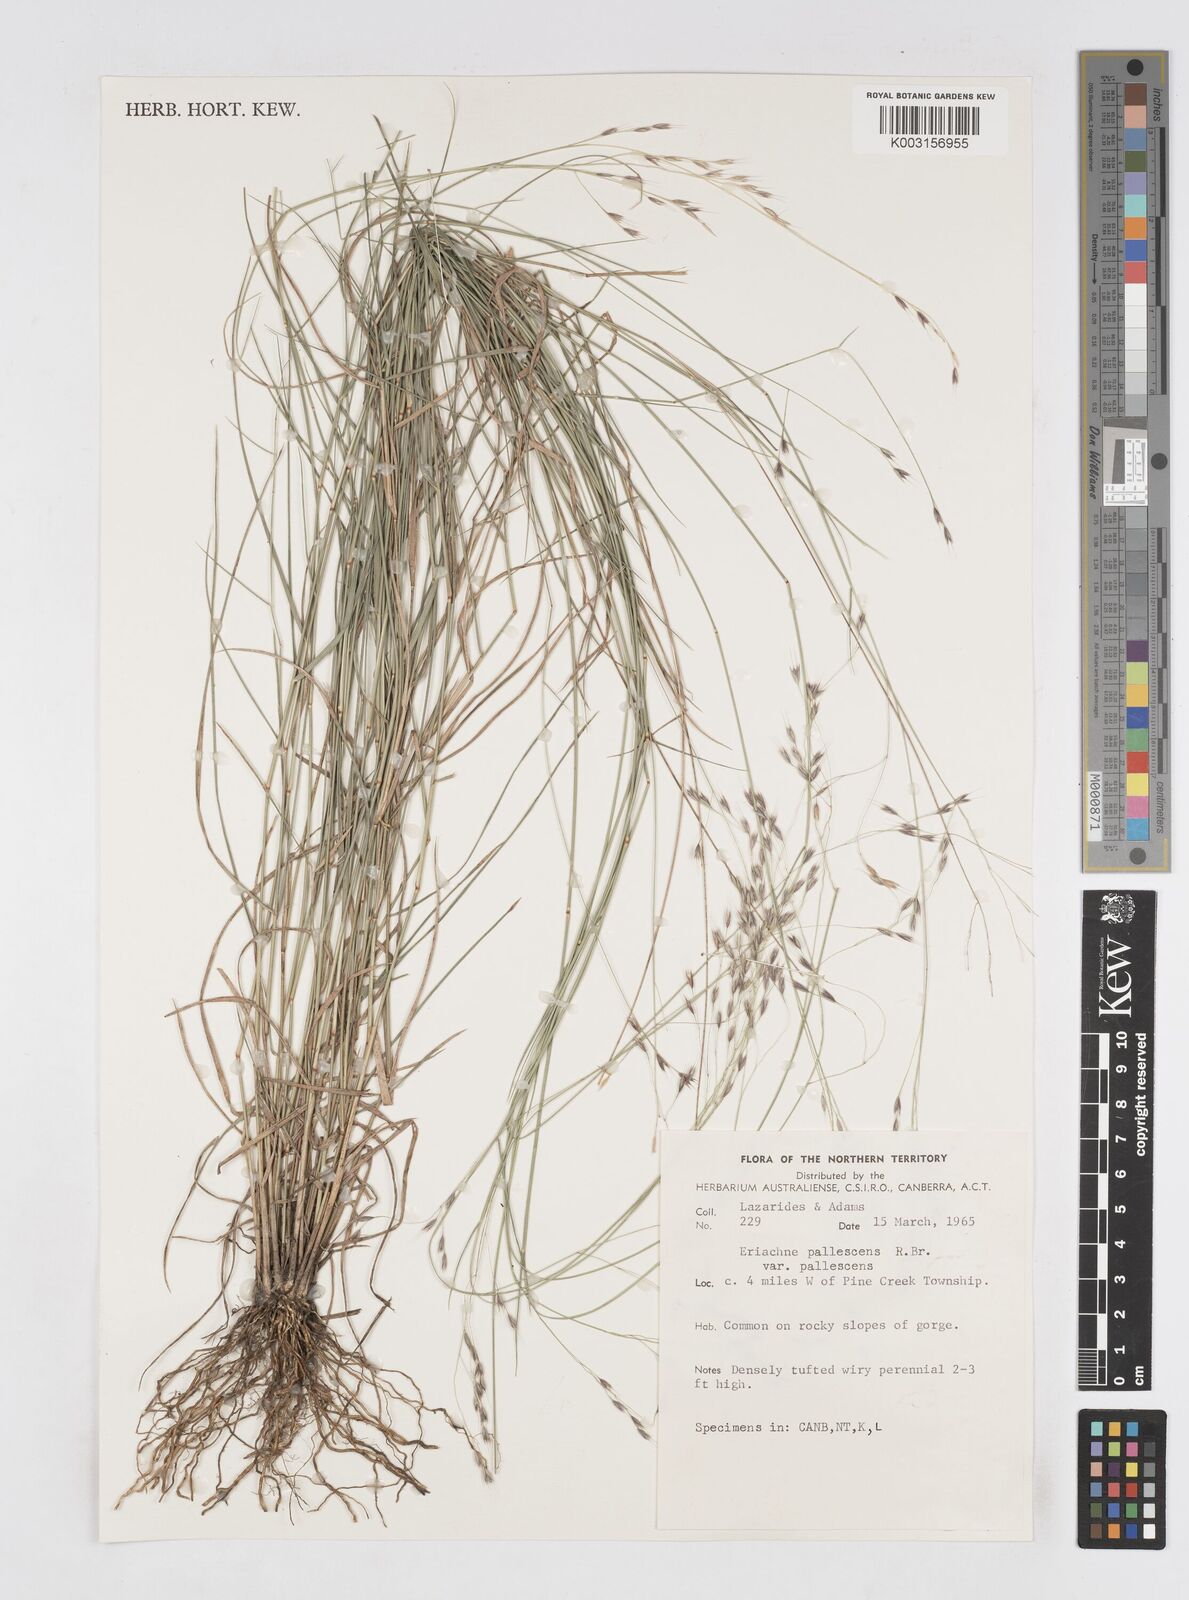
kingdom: Plantae
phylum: Tracheophyta
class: Liliopsida
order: Poales
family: Poaceae
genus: Eriachne
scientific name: Eriachne pallescens
